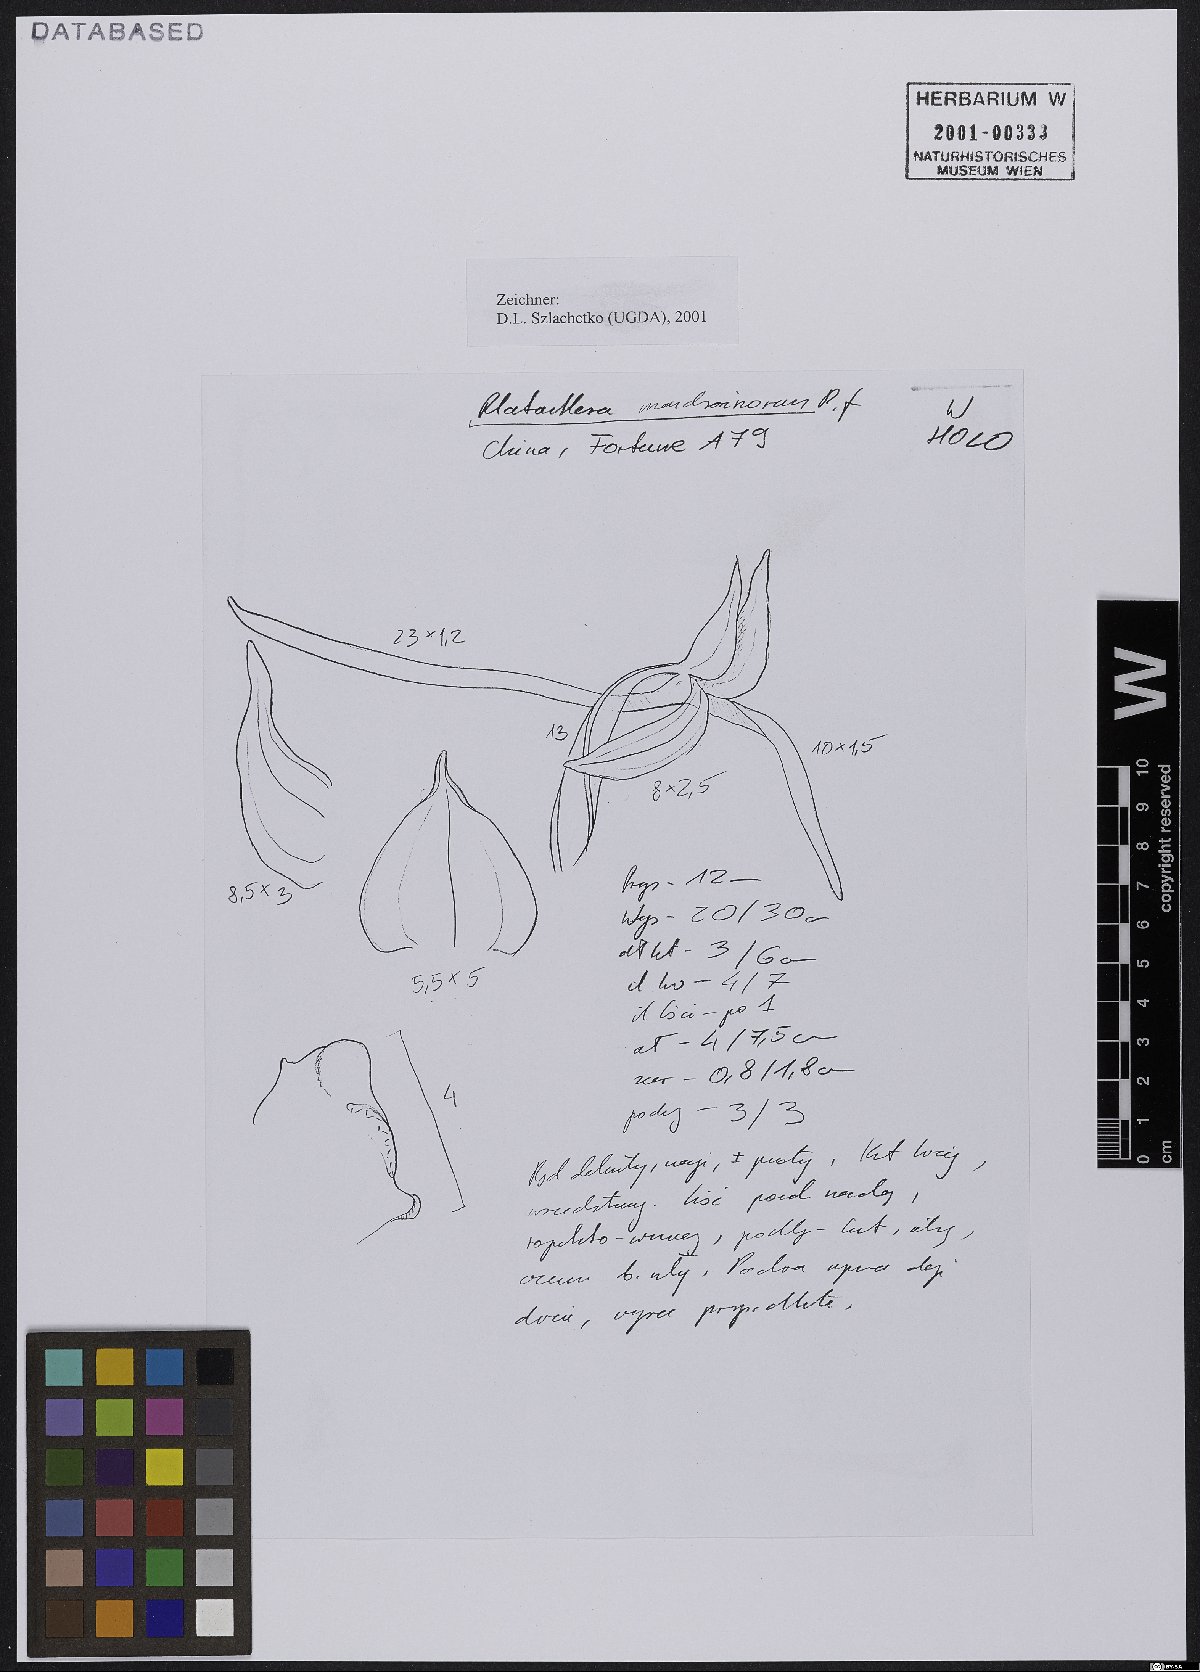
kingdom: Plantae
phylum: Tracheophyta
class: Liliopsida
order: Asparagales
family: Orchidaceae
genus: Platanthera
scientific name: Platanthera mandarinorum
